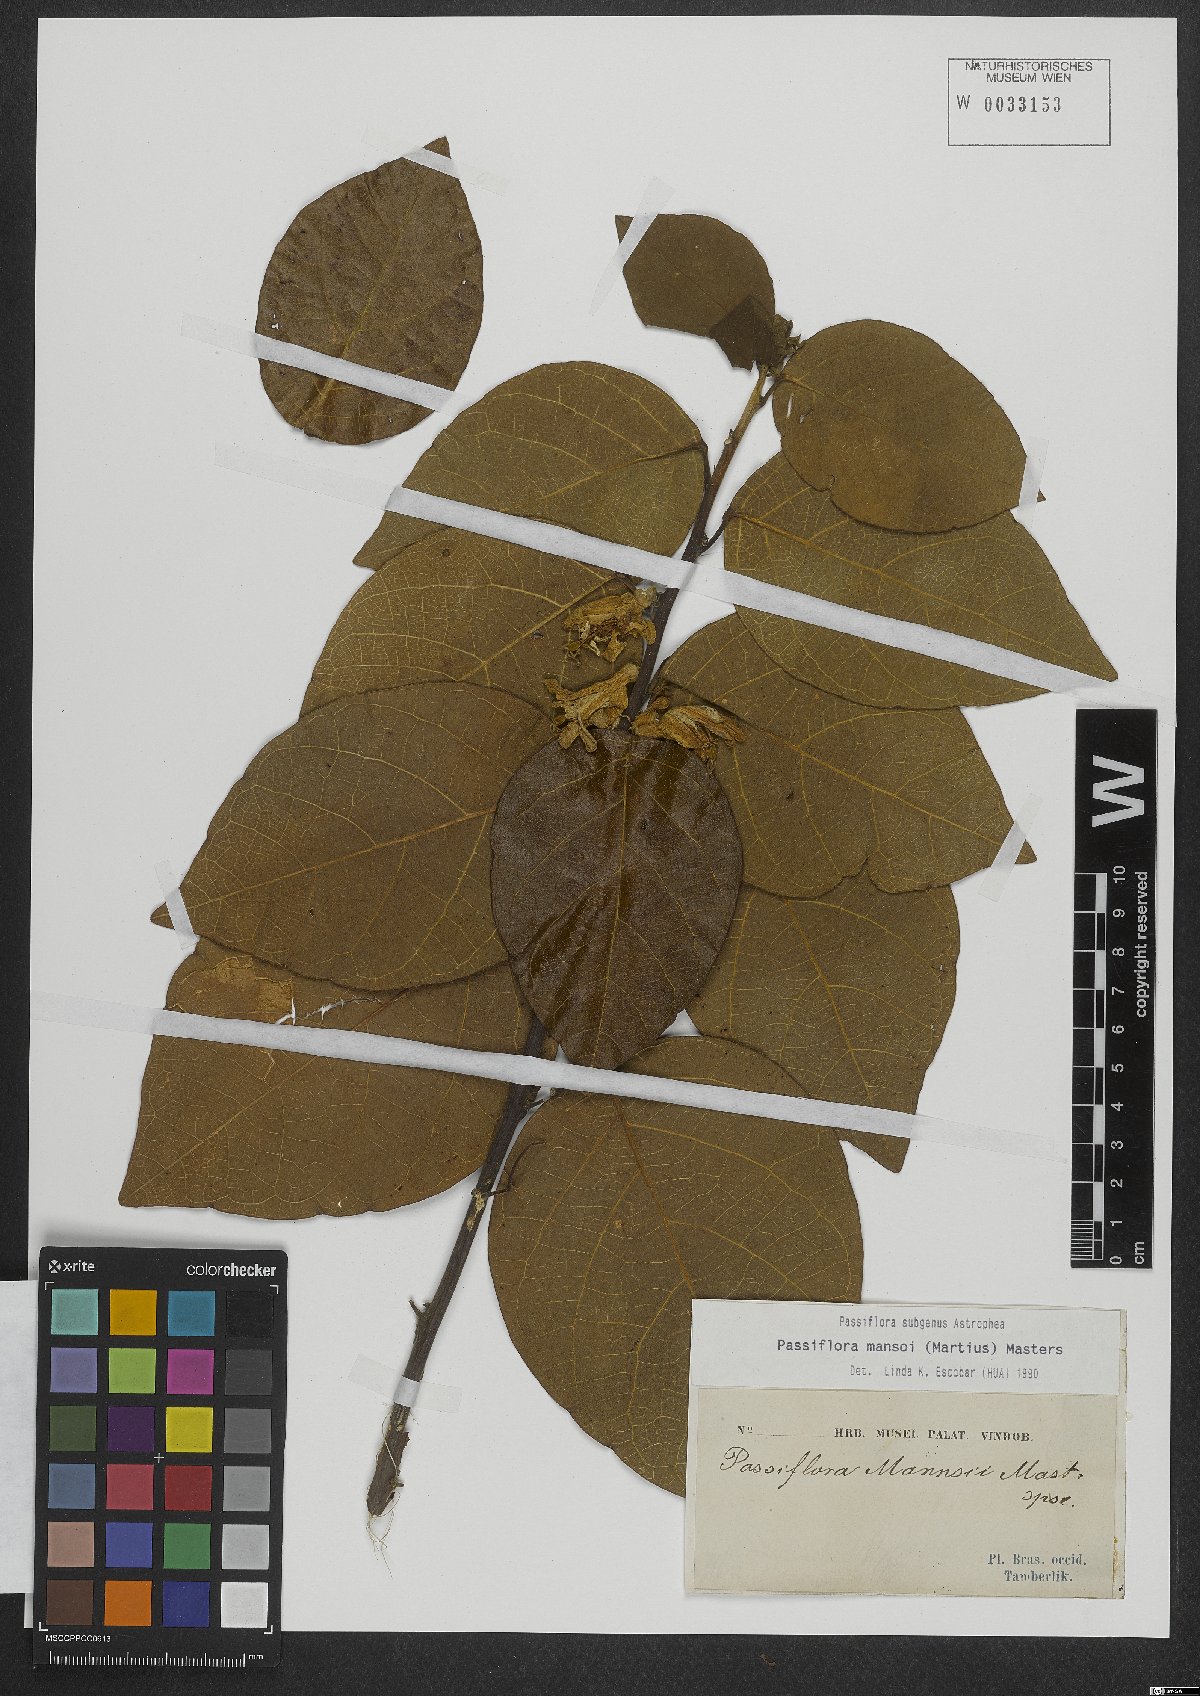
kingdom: Plantae
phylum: Tracheophyta
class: Magnoliopsida
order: Malpighiales
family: Passifloraceae
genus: Passiflora
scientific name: Passiflora mansoi
